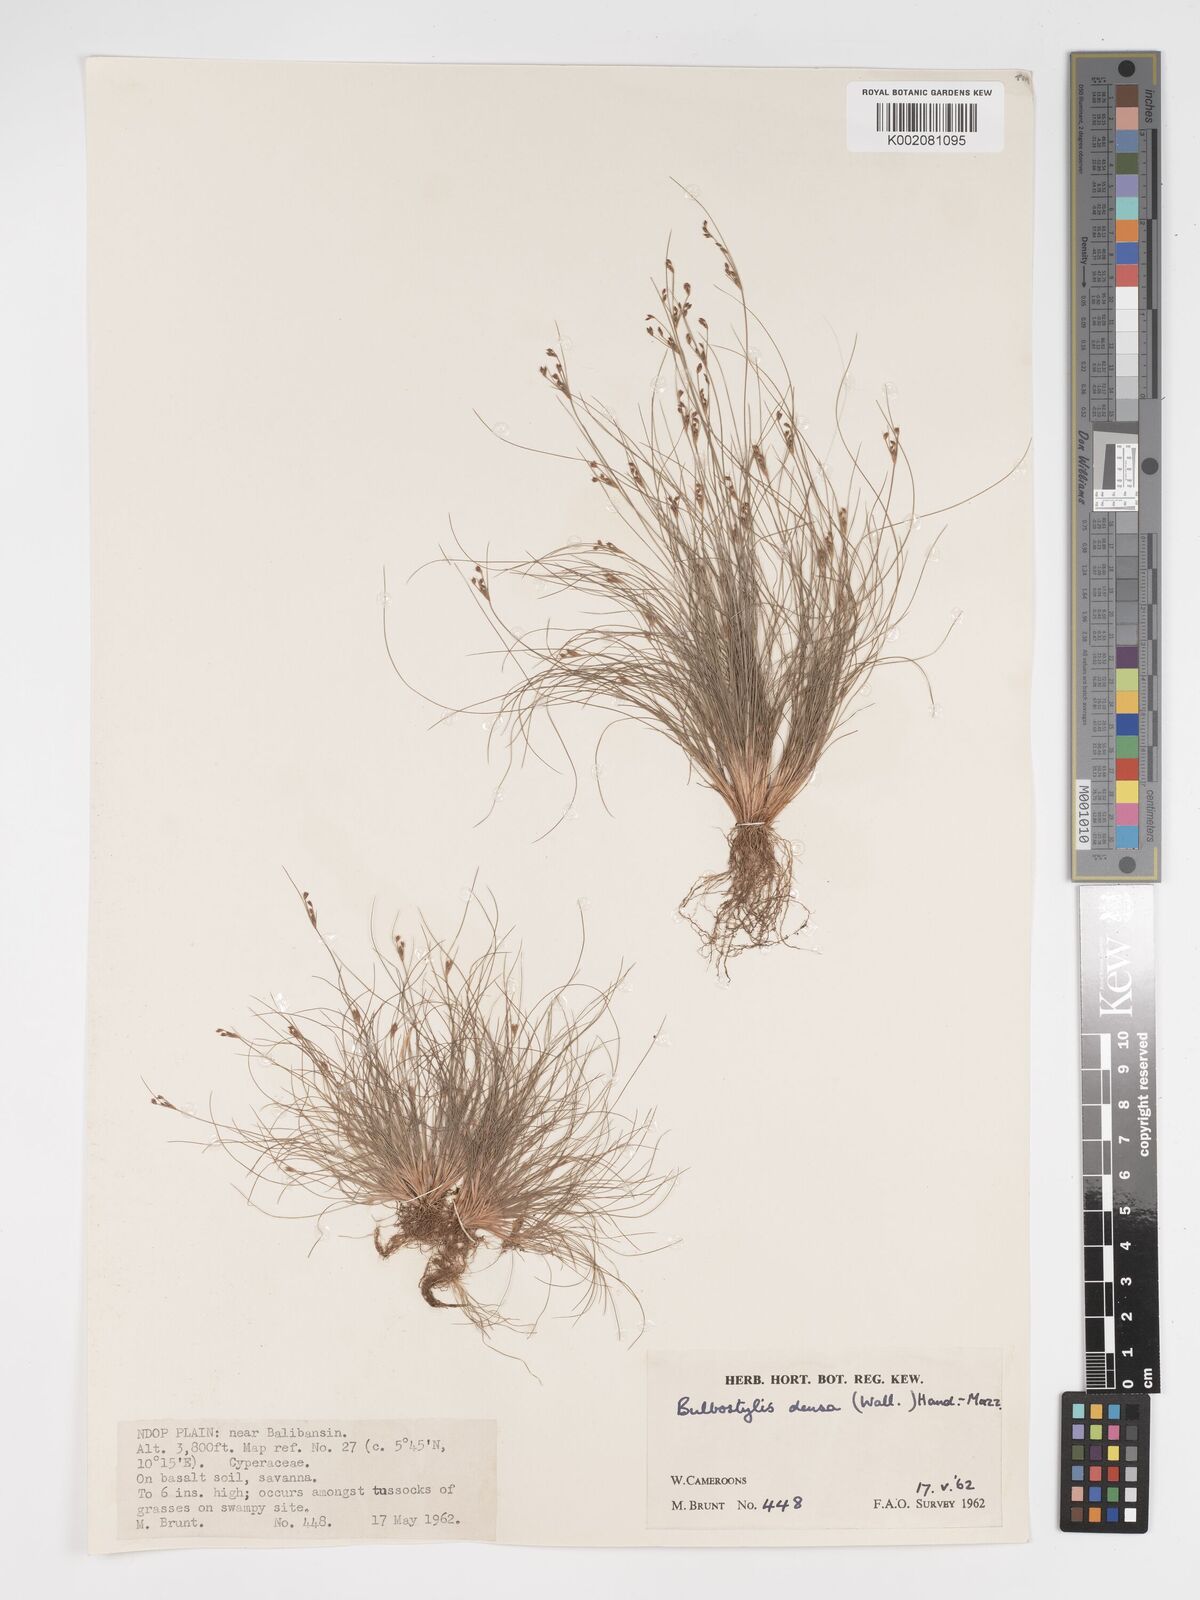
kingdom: Plantae
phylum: Tracheophyta
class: Liliopsida
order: Poales
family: Cyperaceae
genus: Bulbostylis
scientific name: Bulbostylis densa
